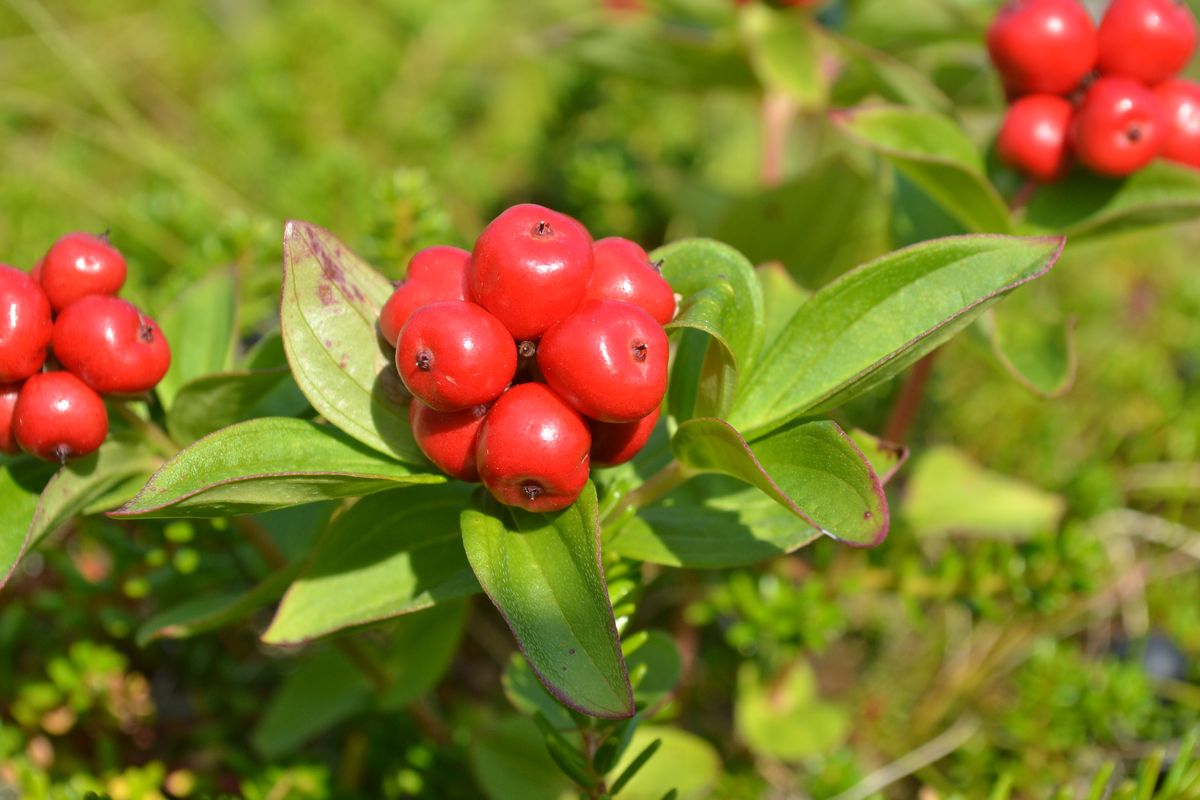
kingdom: Plantae
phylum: Tracheophyta
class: Magnoliopsida
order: Cornales
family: Cornaceae
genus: Cornus
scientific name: Cornus suecica
